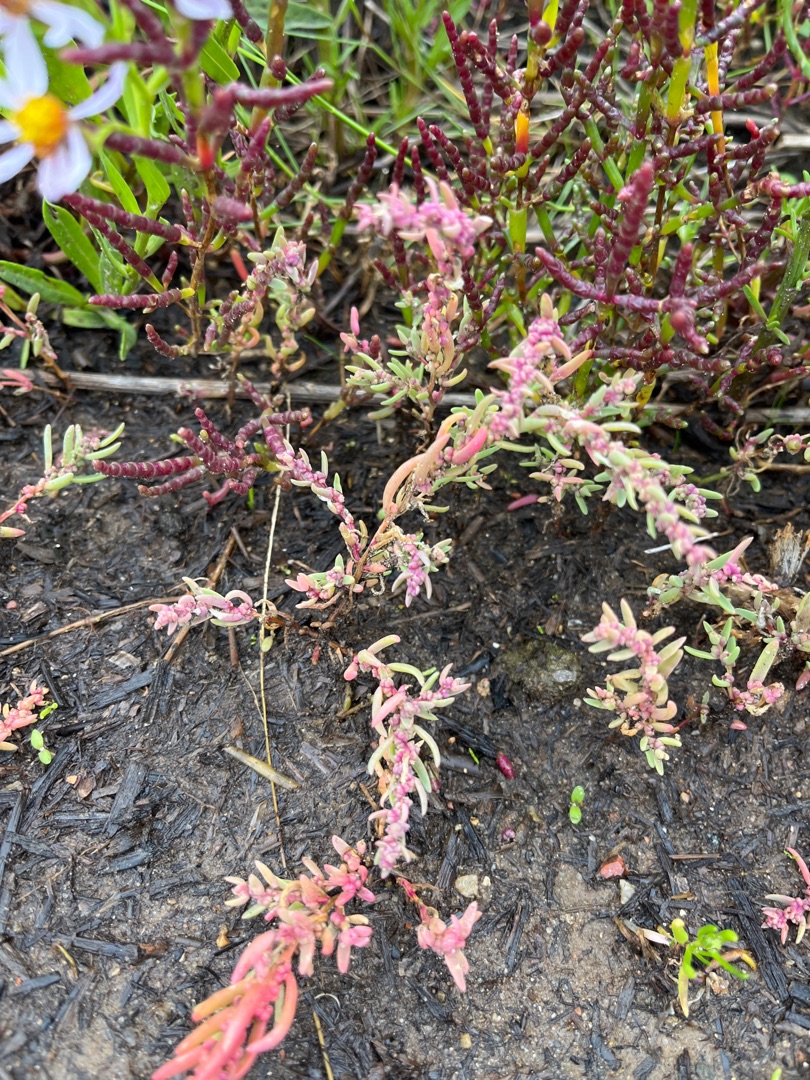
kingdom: Plantae
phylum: Tracheophyta
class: Magnoliopsida
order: Caryophyllales
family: Amaranthaceae
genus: Suaeda
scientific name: Suaeda maritima
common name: Strandgåsefod
